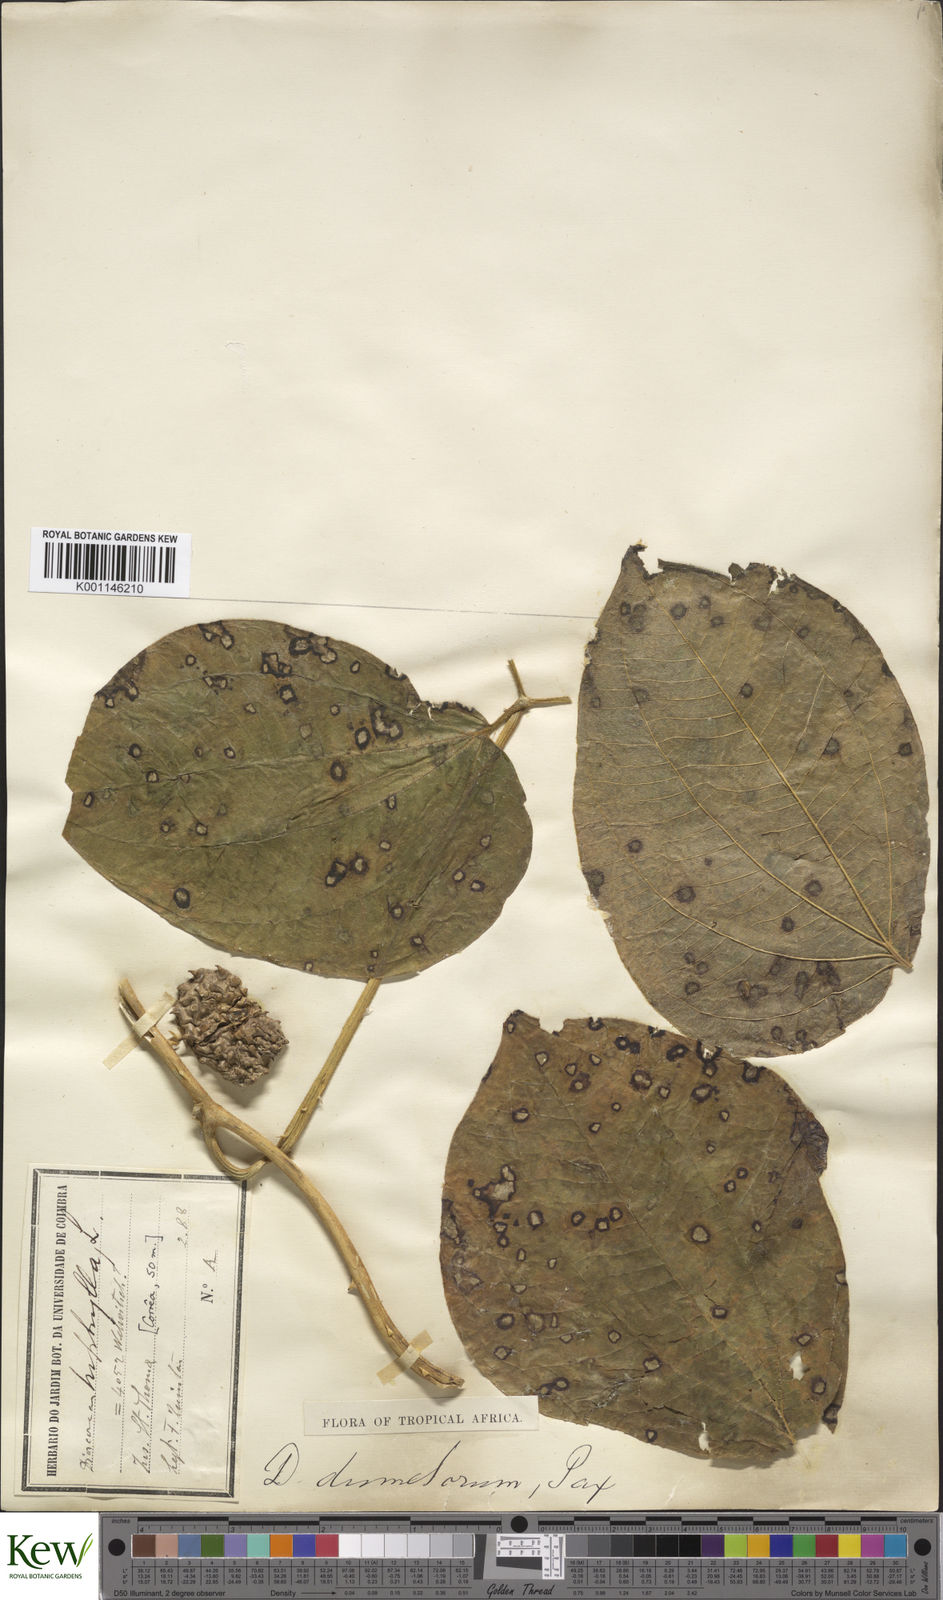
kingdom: Plantae
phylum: Tracheophyta
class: Liliopsida
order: Dioscoreales
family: Dioscoreaceae
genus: Dioscorea
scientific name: Dioscorea dumetorum
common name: African bitter yam
